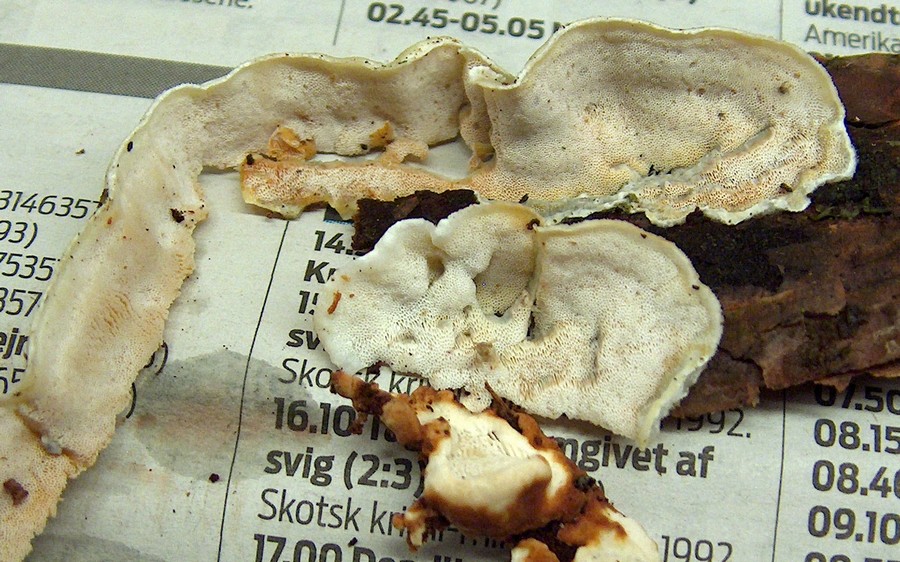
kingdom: Fungi
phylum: Basidiomycota
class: Agaricomycetes
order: Polyporales
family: Incrustoporiaceae
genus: Skeletocutis
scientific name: Skeletocutis amorpha
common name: orange krystalporesvamp
